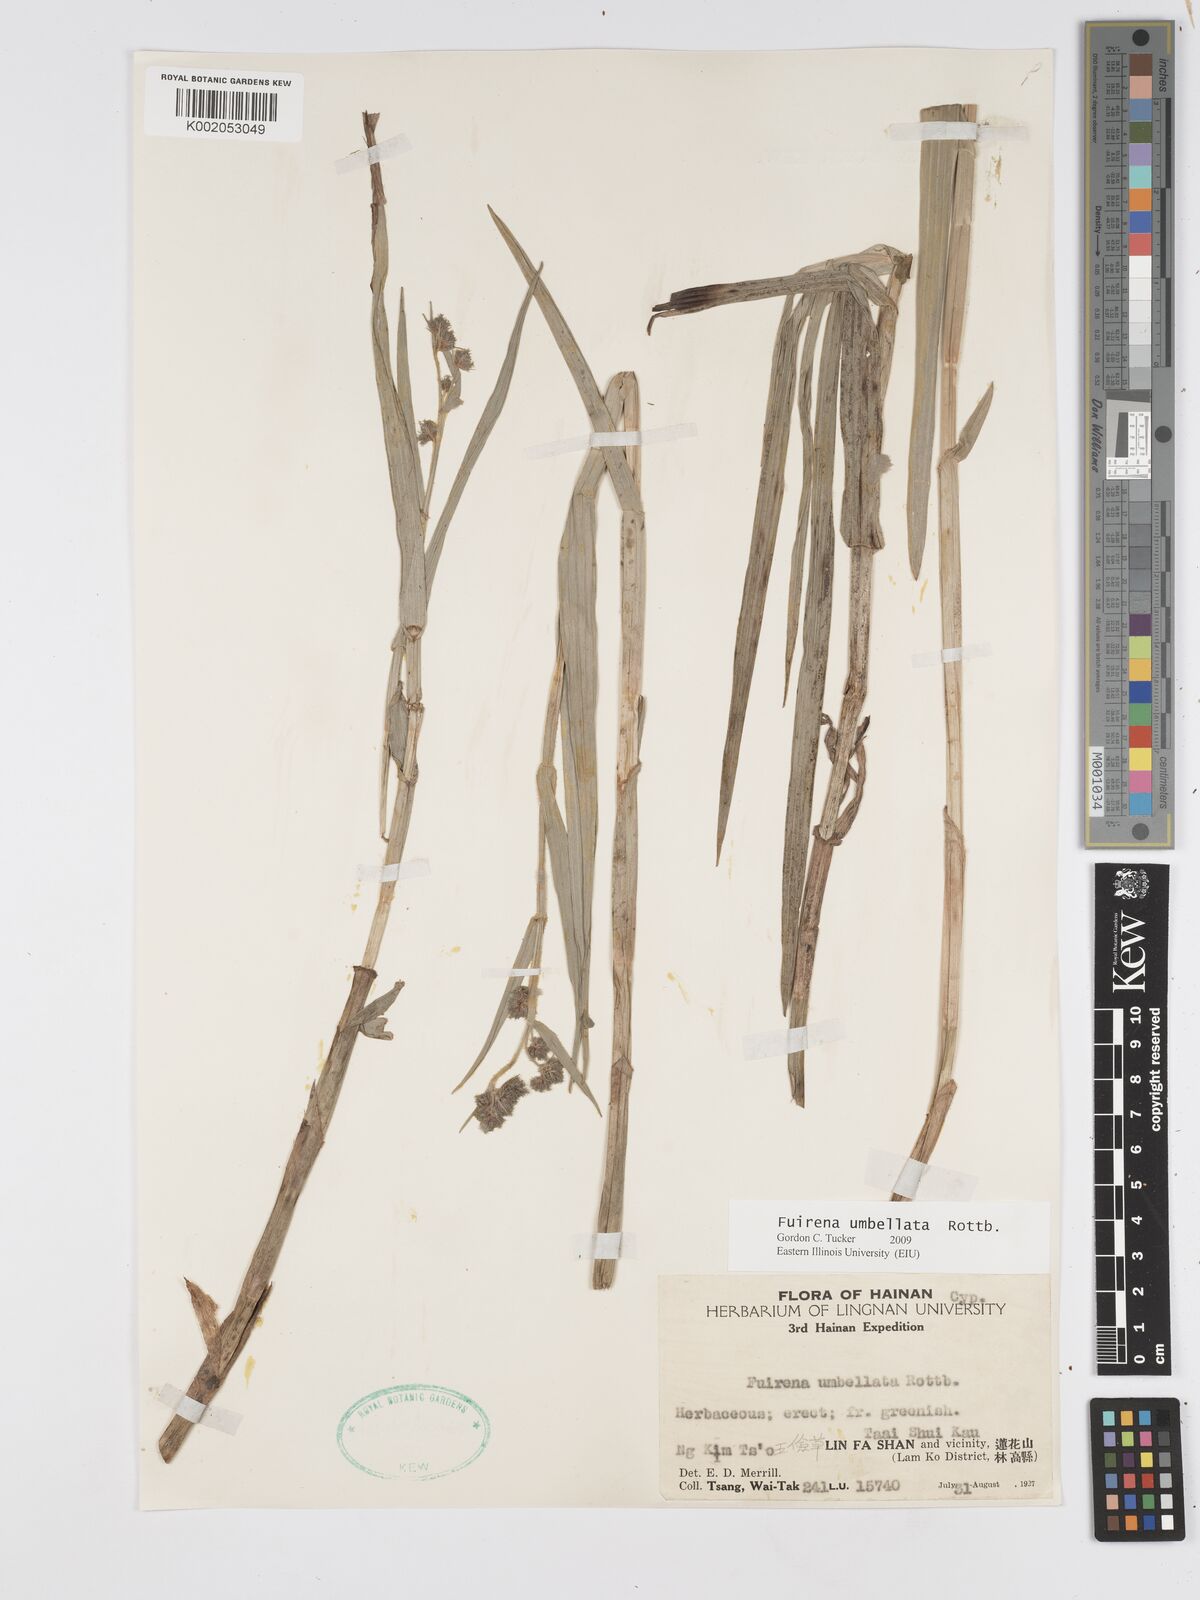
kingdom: Plantae
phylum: Tracheophyta
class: Liliopsida
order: Poales
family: Cyperaceae
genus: Fuirena
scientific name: Fuirena umbellata
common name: Yefen
